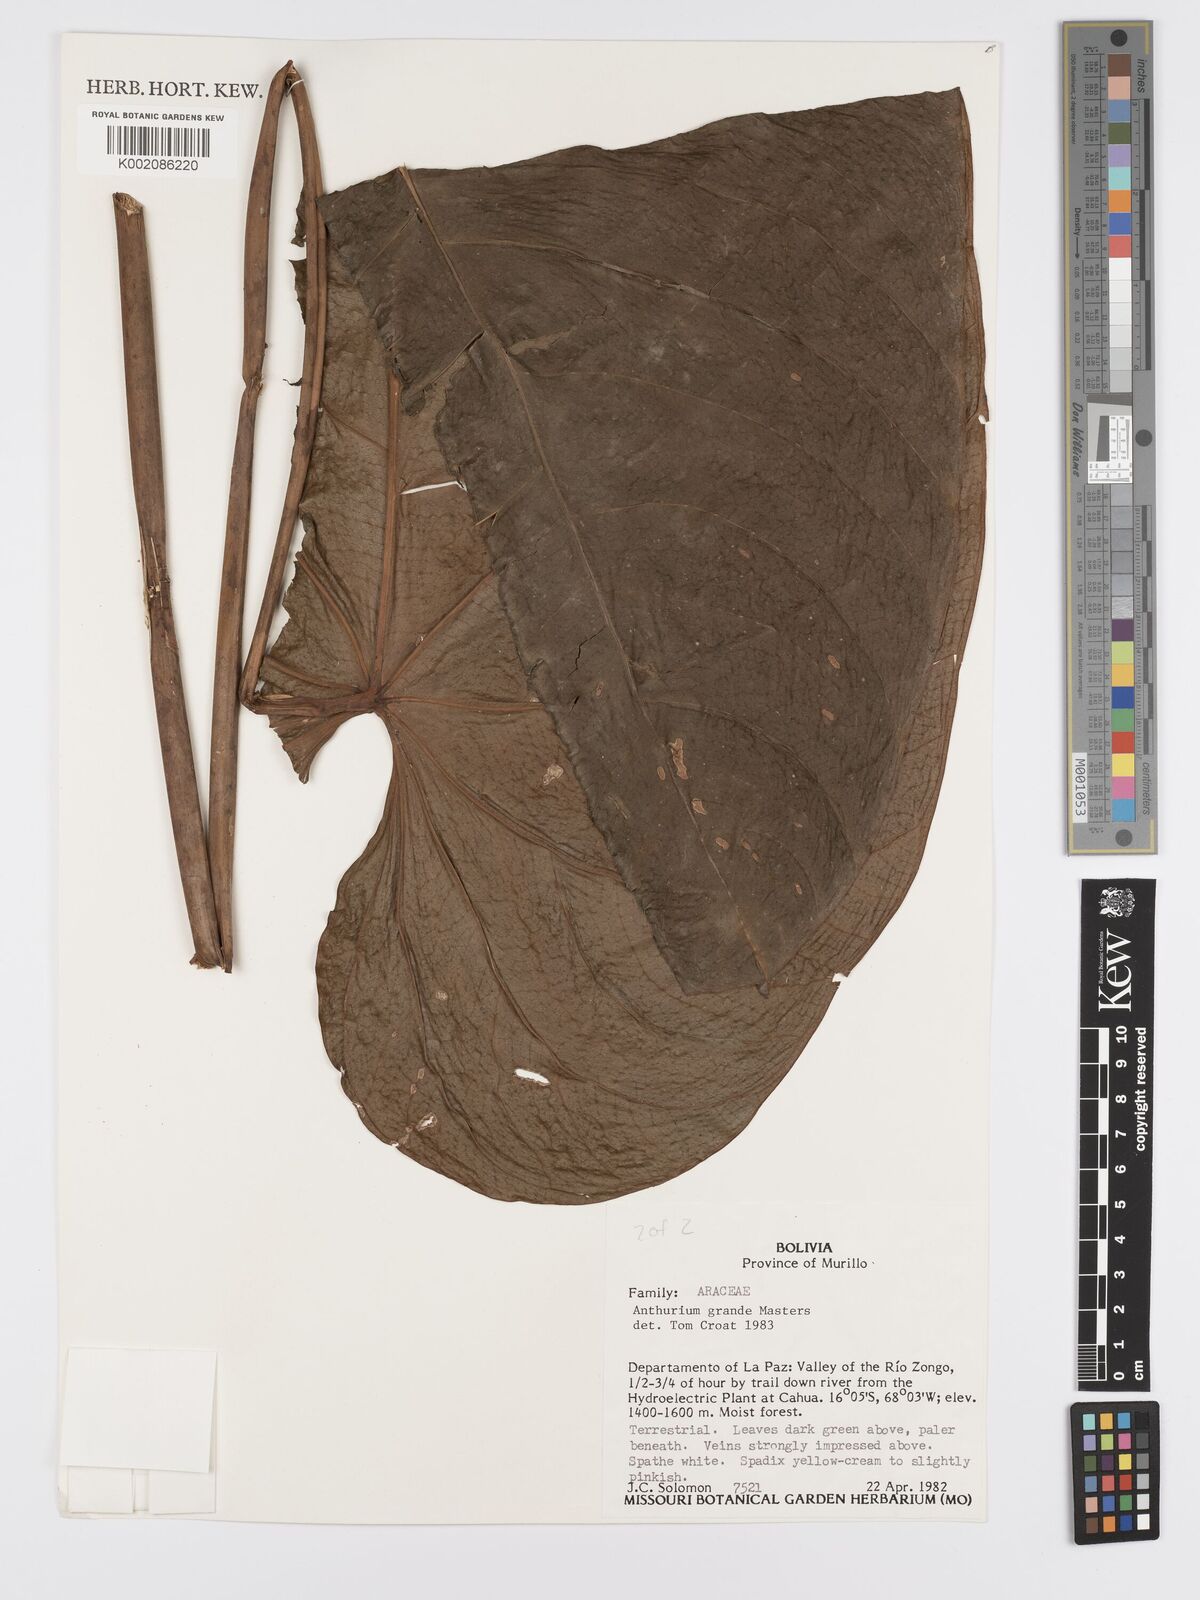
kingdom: Plantae
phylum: Tracheophyta
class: Liliopsida
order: Alismatales
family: Araceae
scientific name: Araceae
